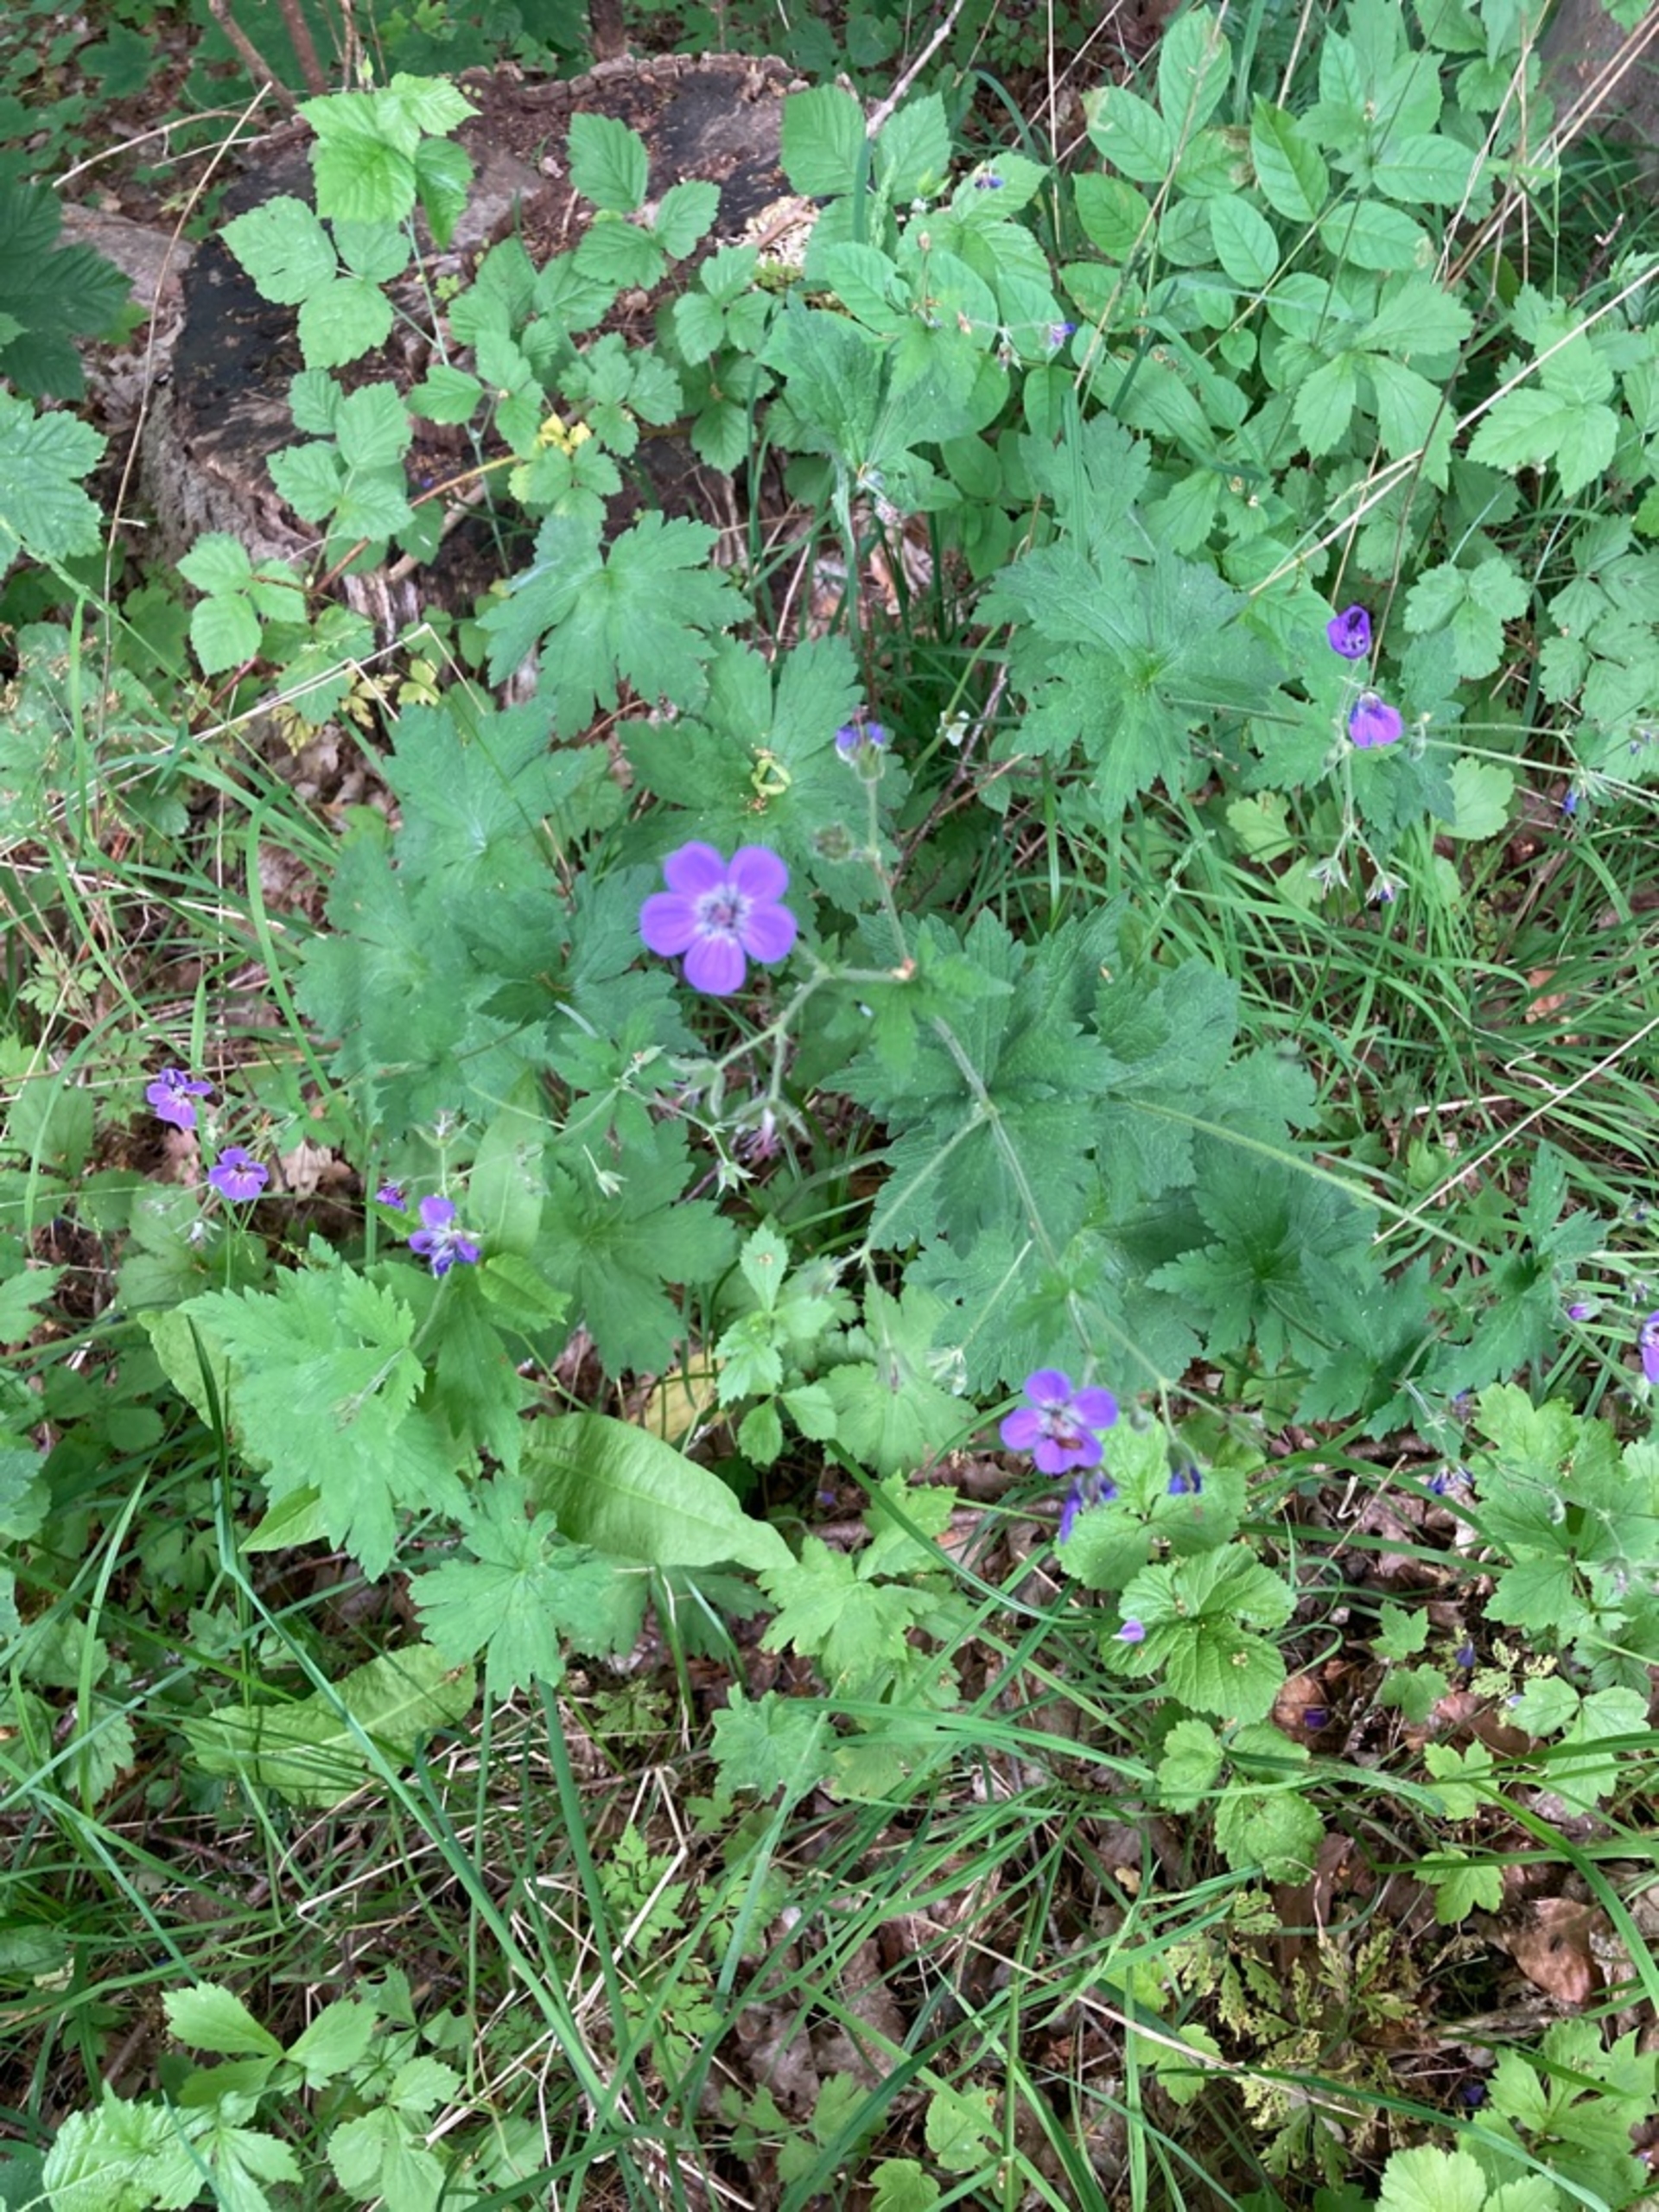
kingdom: Plantae
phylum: Tracheophyta
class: Magnoliopsida
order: Geraniales
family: Geraniaceae
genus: Geranium
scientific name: Geranium sylvaticum
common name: Skov-storkenæb
